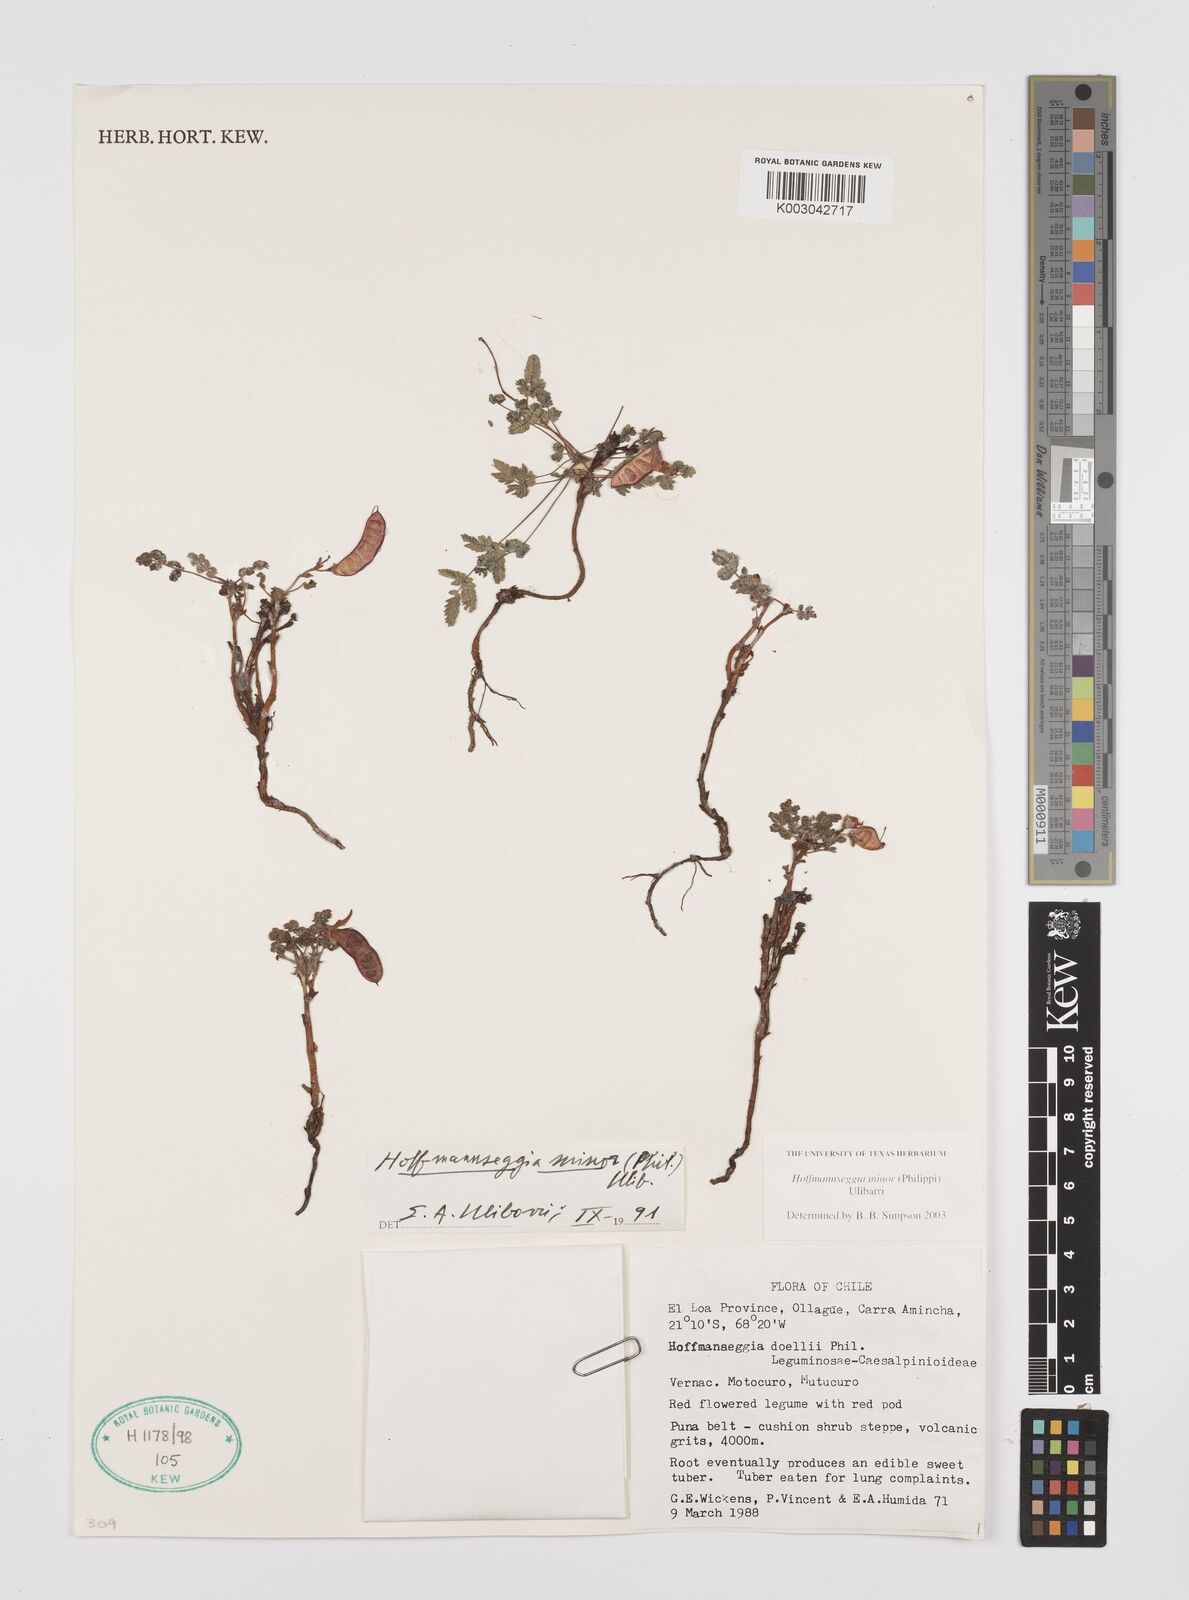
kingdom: Plantae
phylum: Tracheophyta
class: Magnoliopsida
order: Fabales
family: Fabaceae
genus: Hoffmannseggia
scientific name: Hoffmannseggia minor
